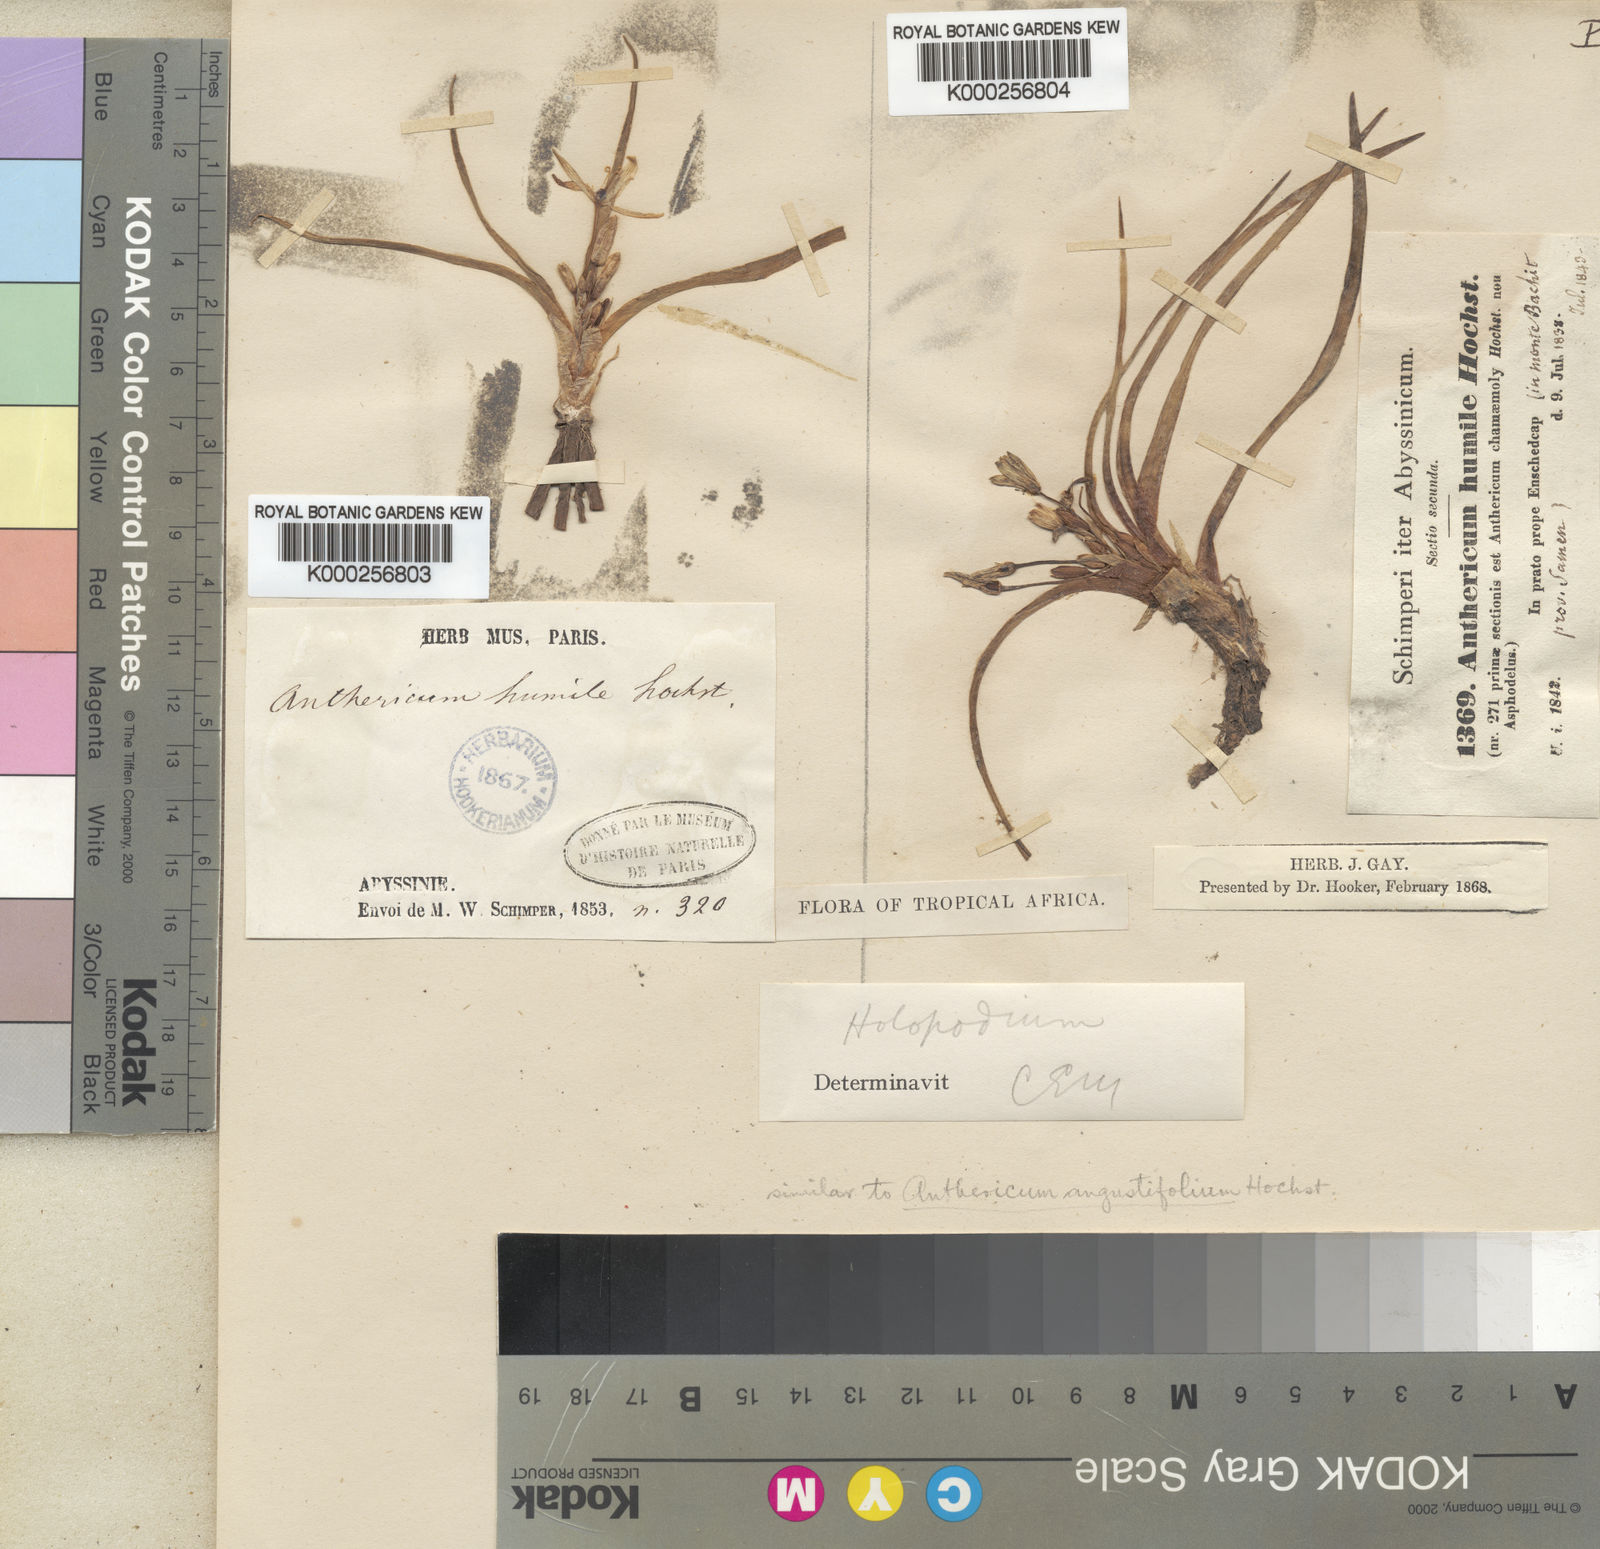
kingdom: Plantae
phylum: Tracheophyta
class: Liliopsida
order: Asparagales
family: Asparagaceae
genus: Anthericum
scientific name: Anthericum
